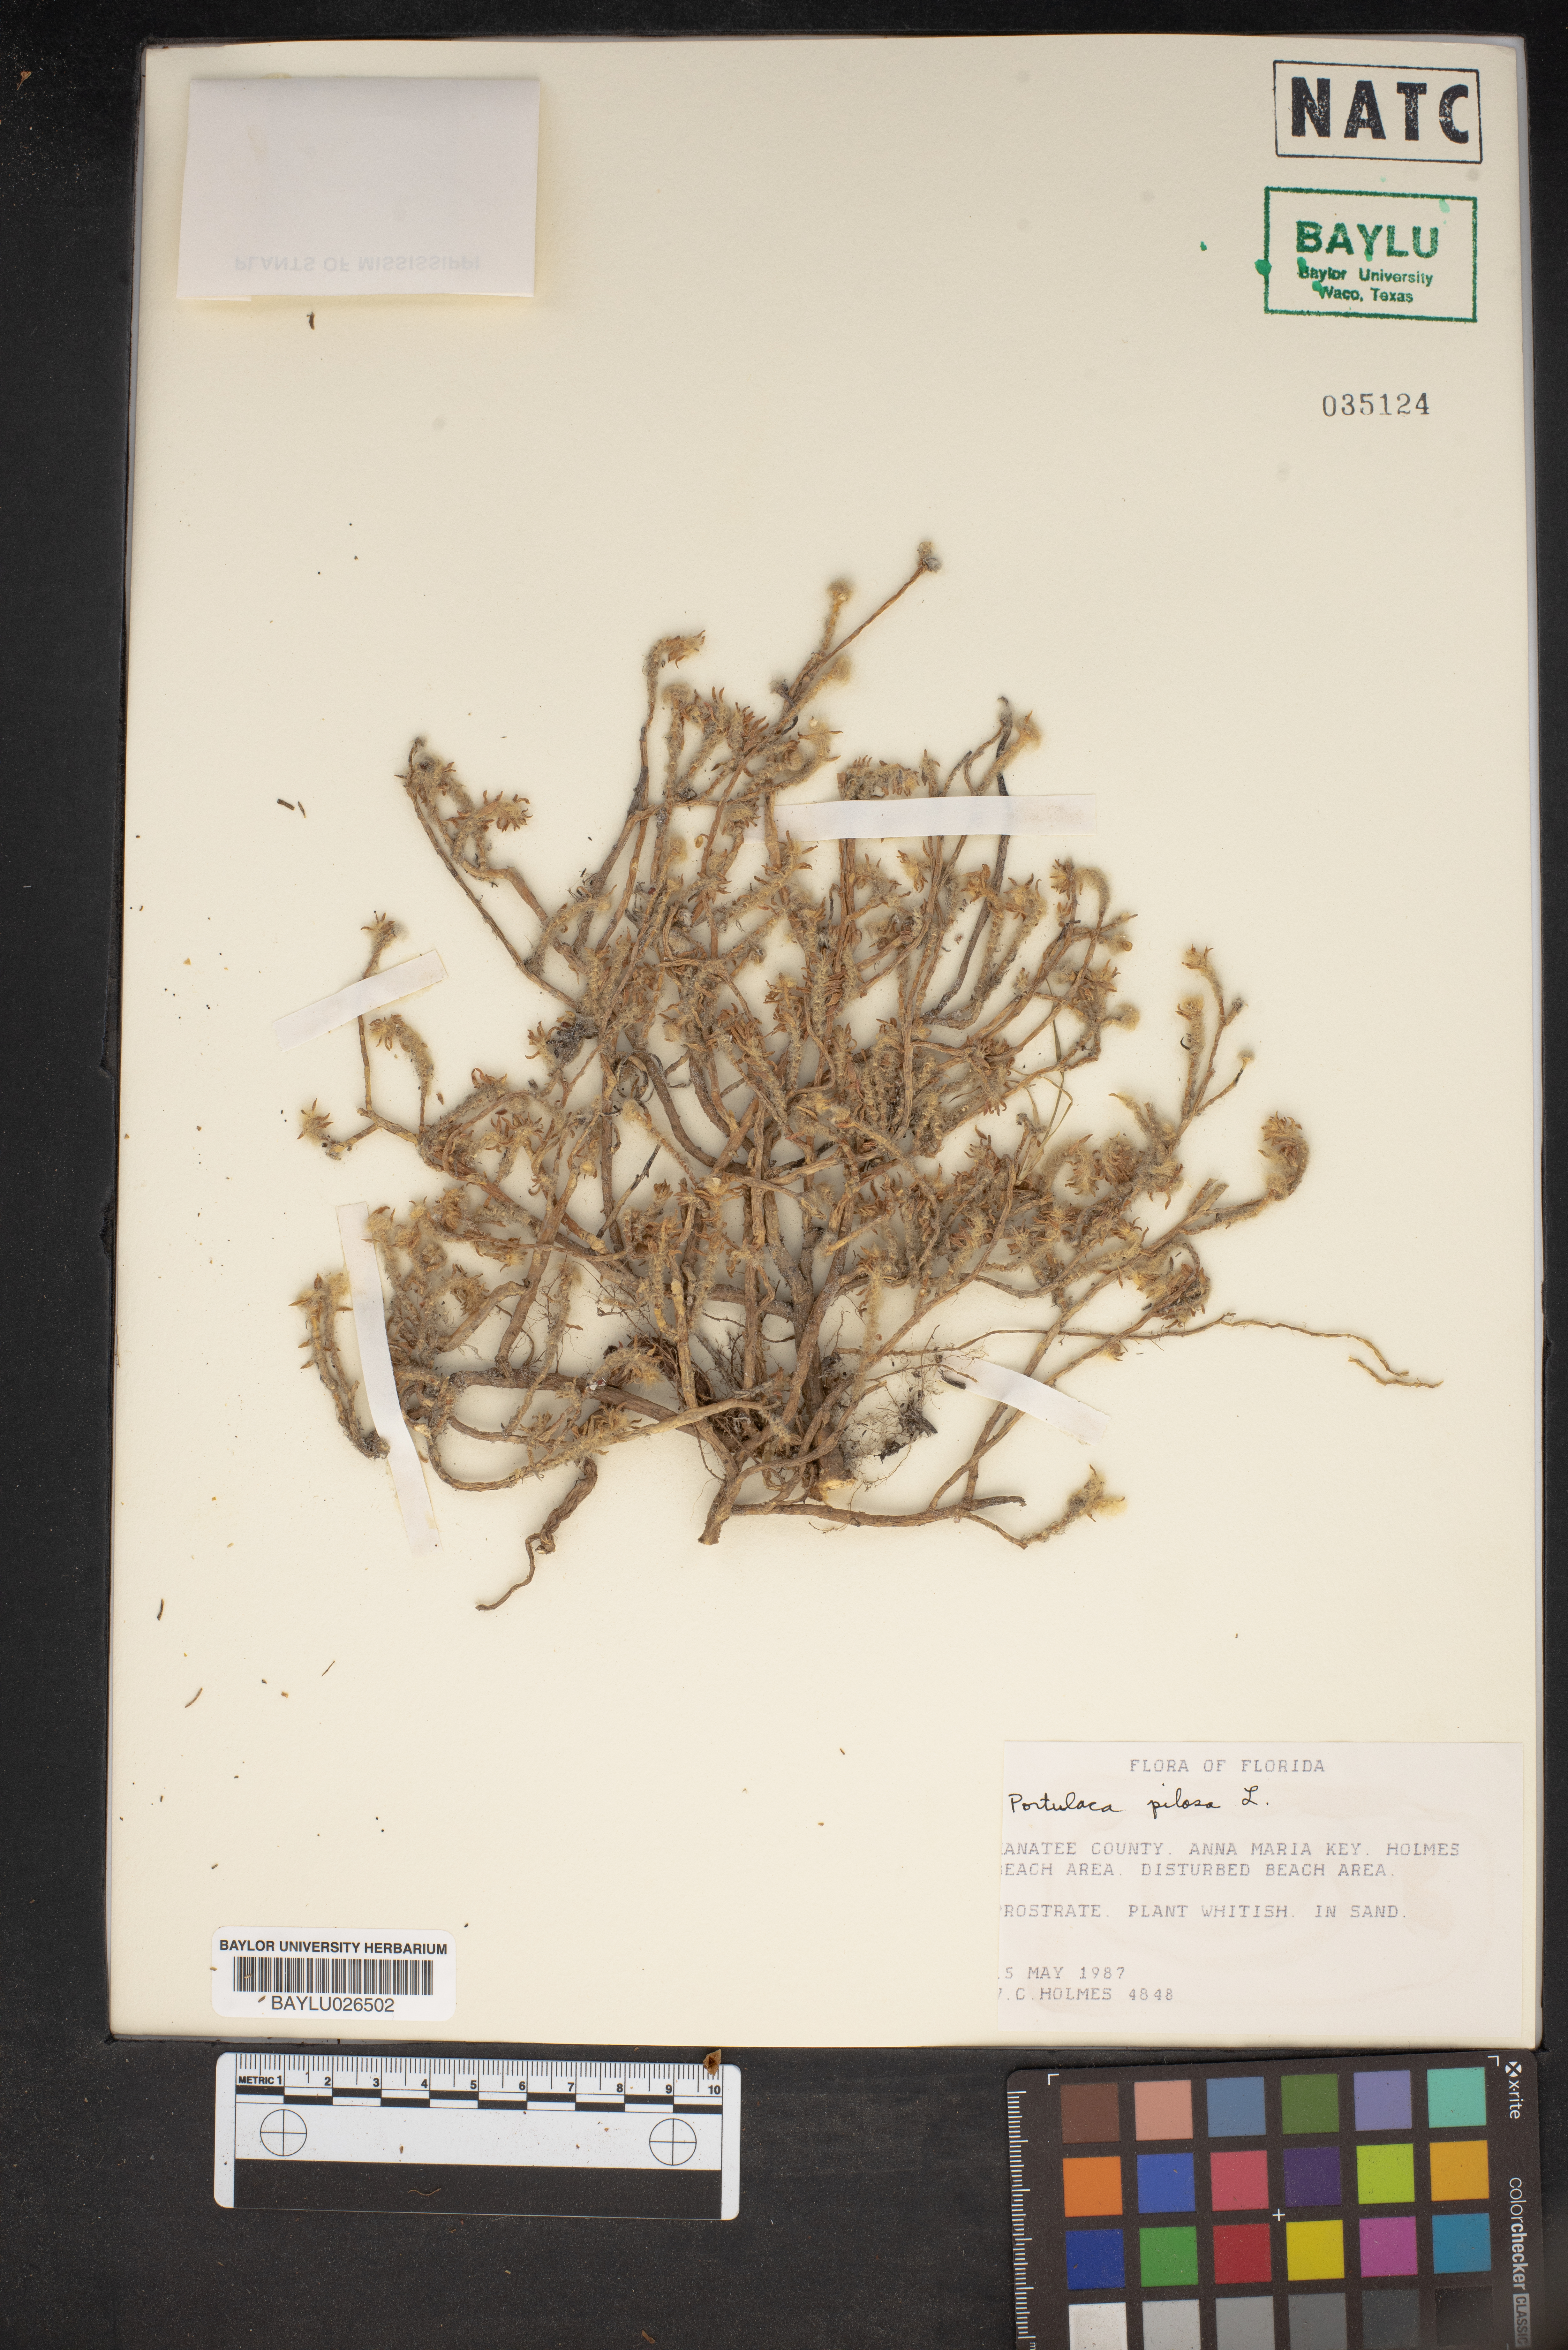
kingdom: Plantae
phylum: Tracheophyta
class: Magnoliopsida
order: Caryophyllales
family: Portulacaceae
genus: Portulaca
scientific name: Portulaca pilosa
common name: Kiss me quick
